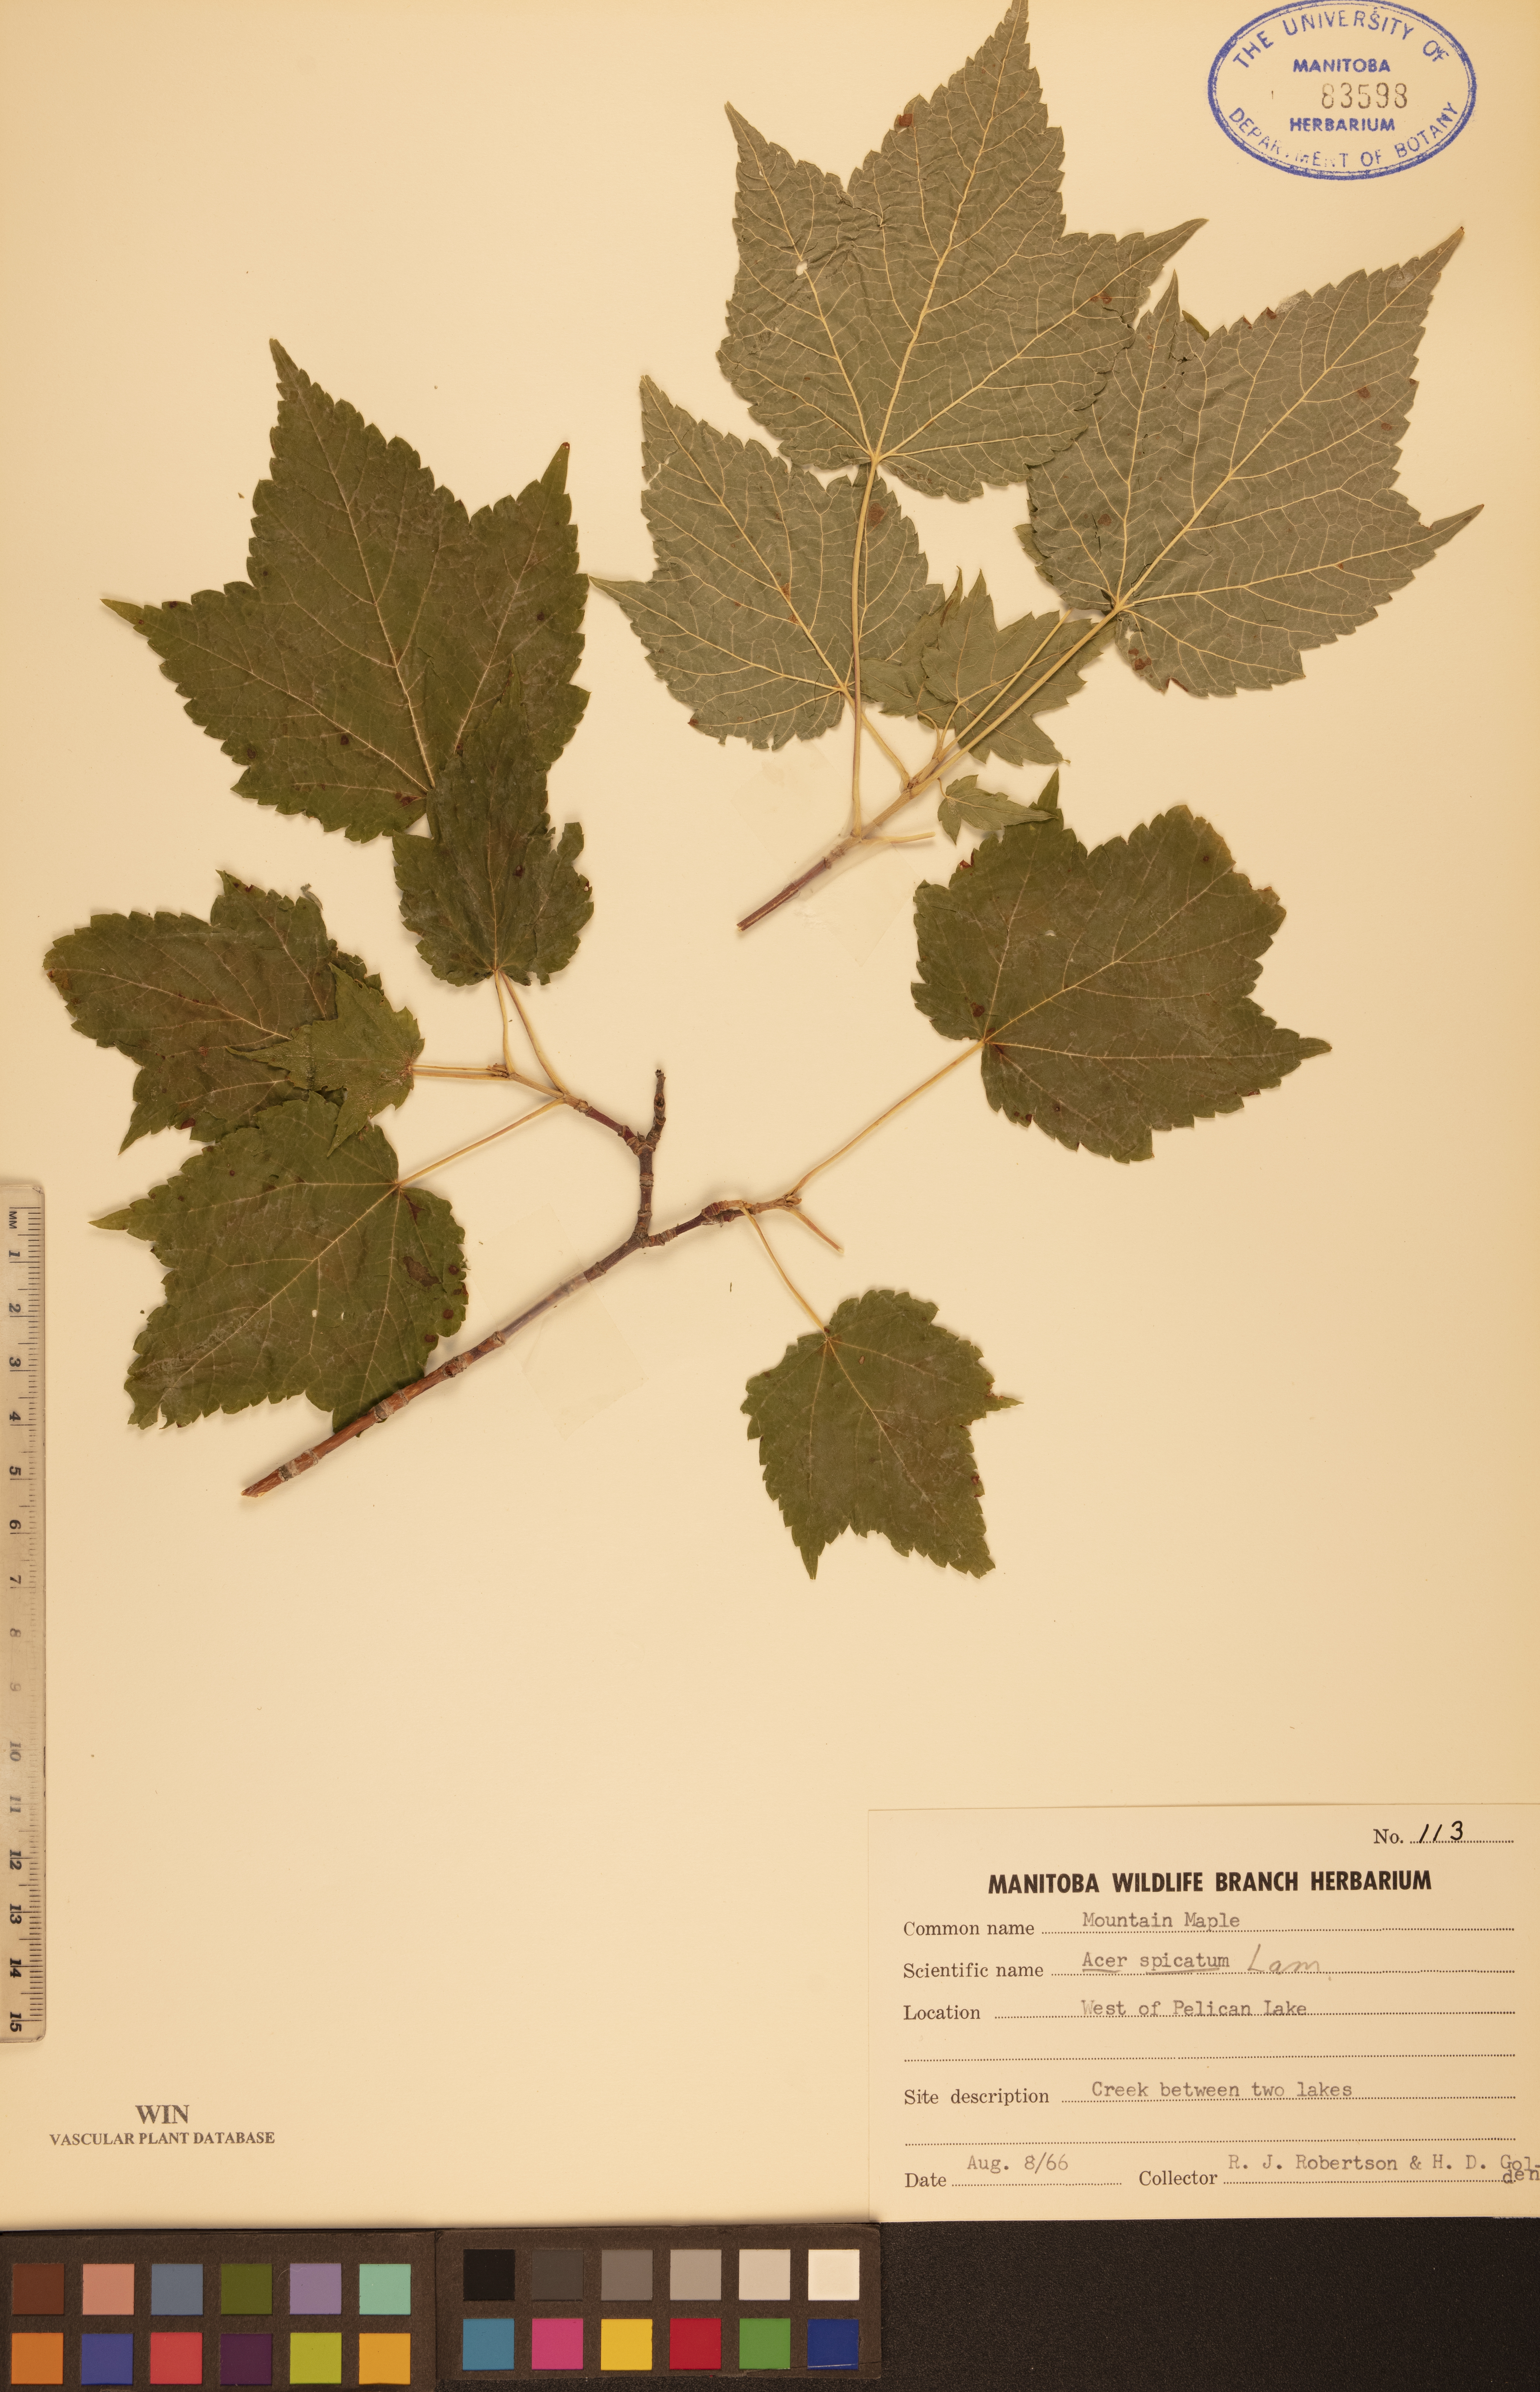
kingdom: Plantae
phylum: Tracheophyta
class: Magnoliopsida
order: Sapindales
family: Sapindaceae
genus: Acer
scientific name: Acer spicatum
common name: Mountain maple
